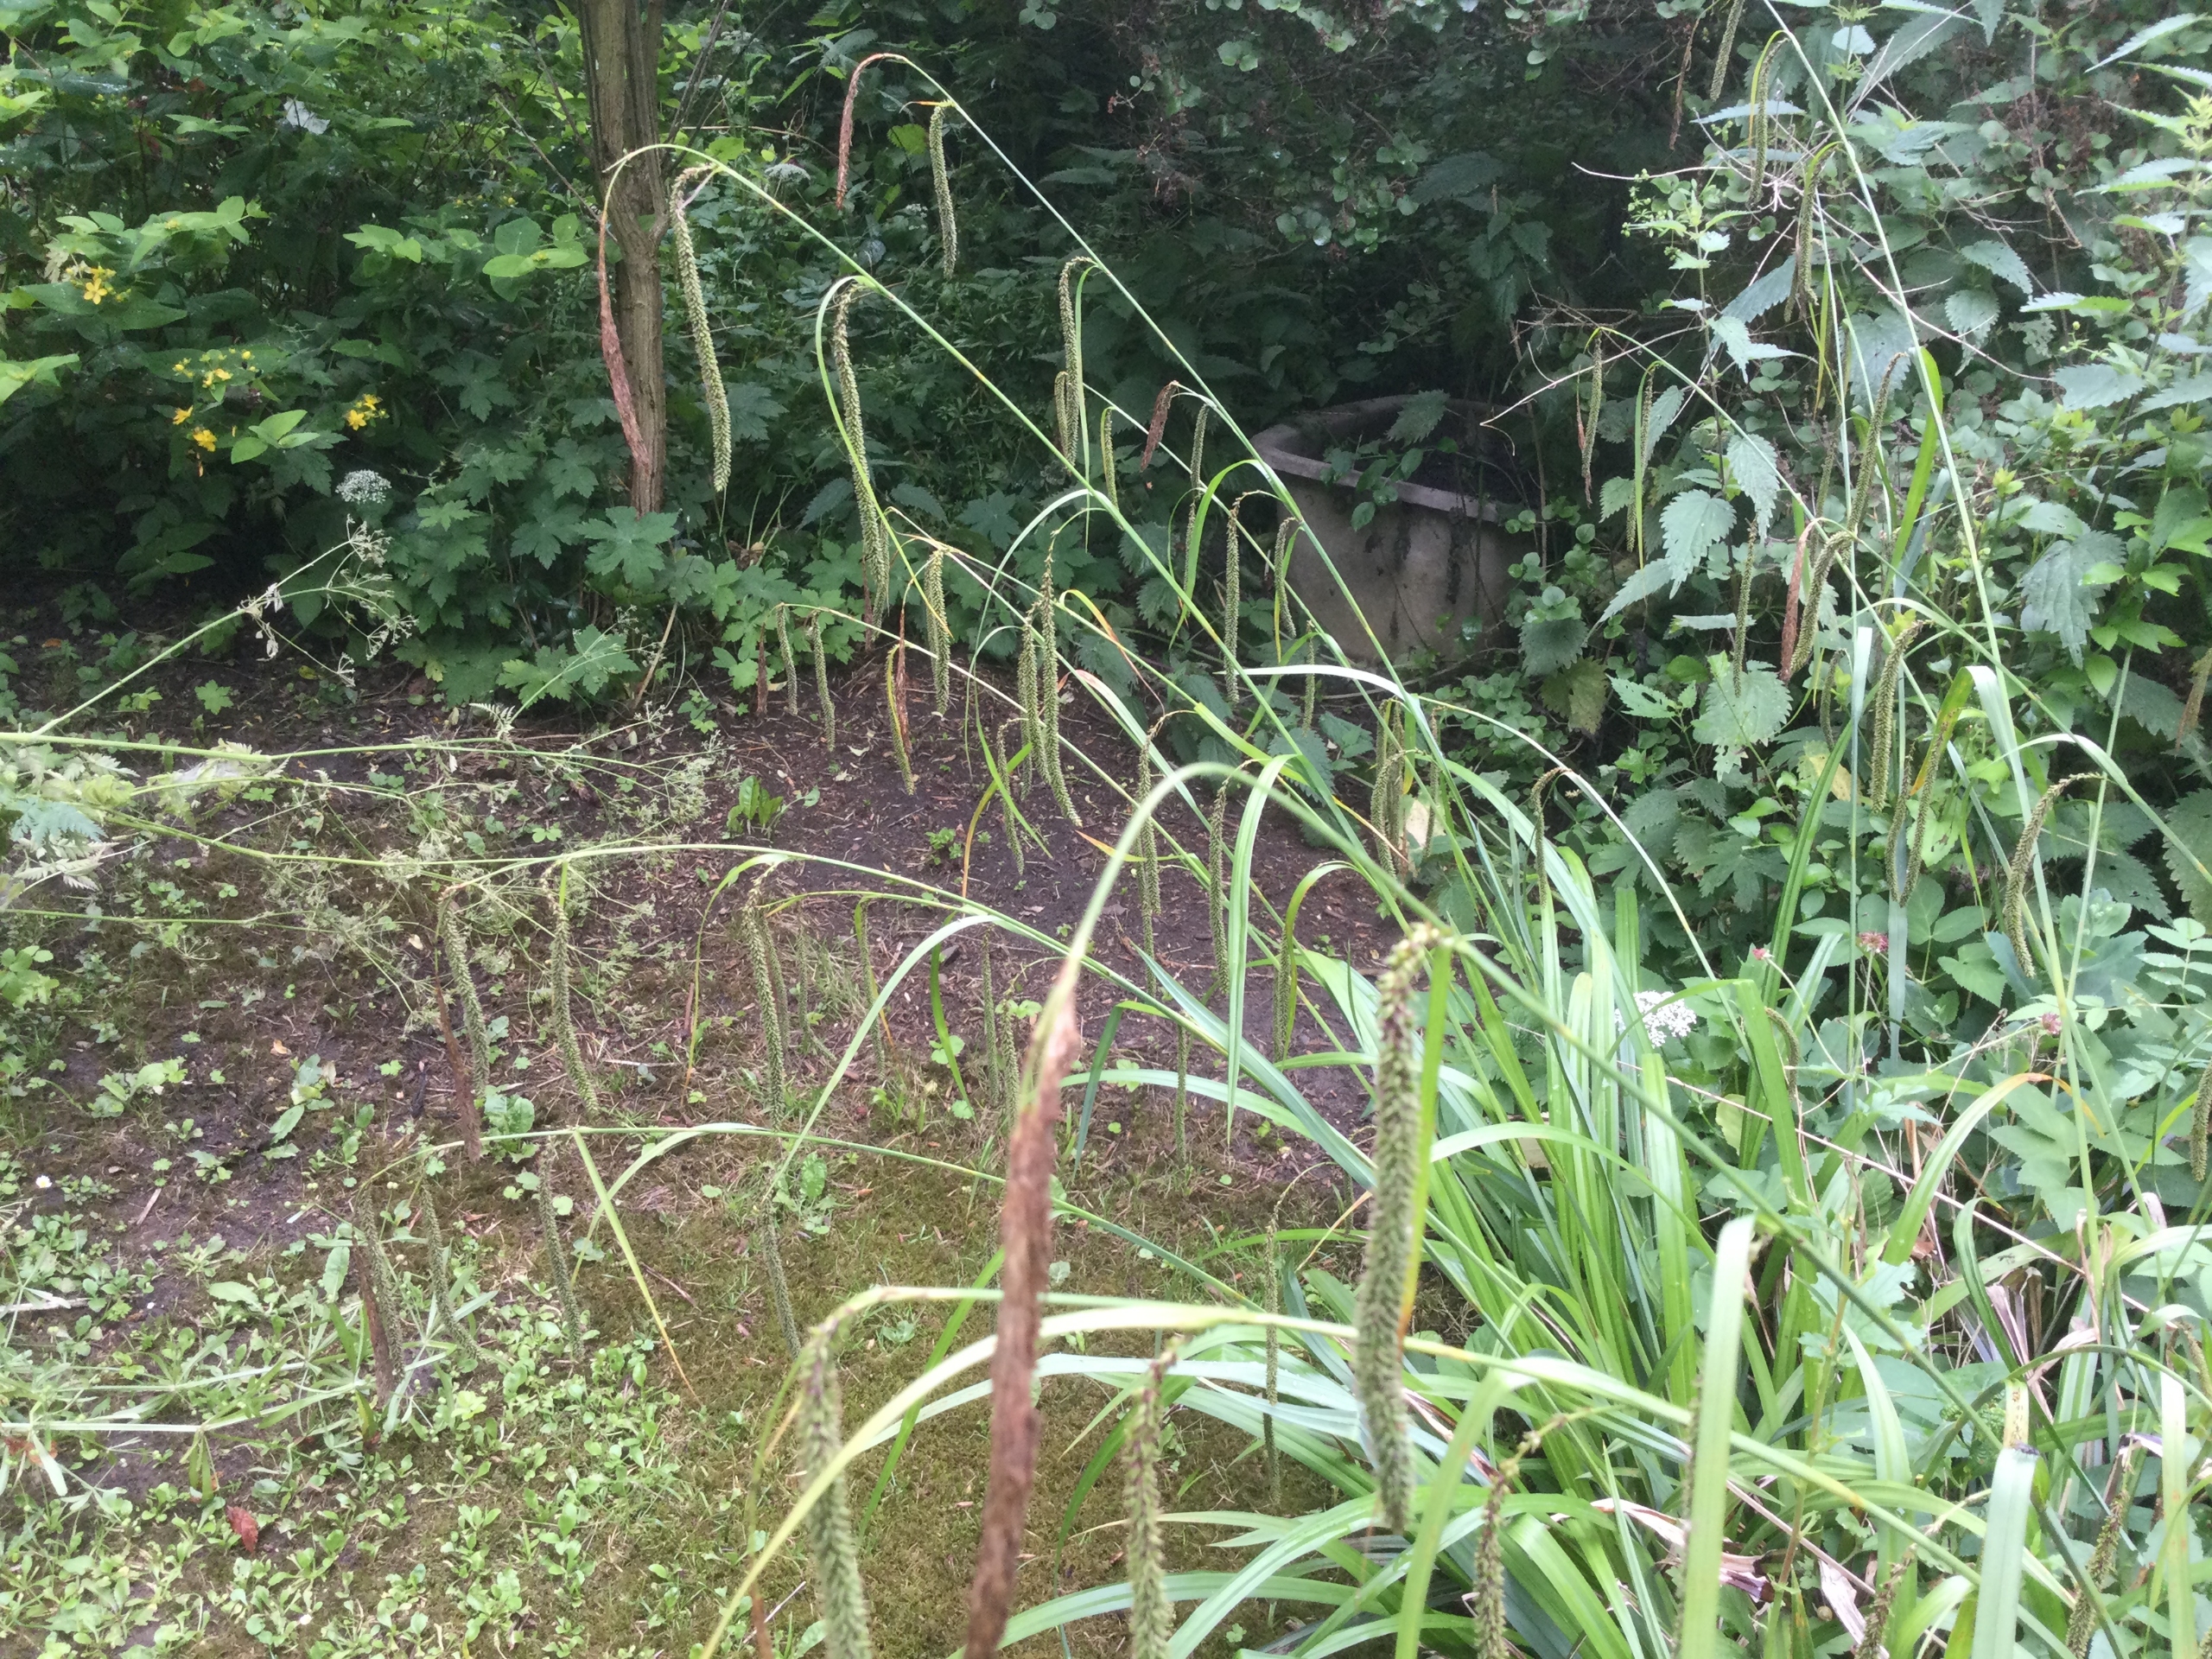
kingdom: Plantae
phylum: Tracheophyta
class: Liliopsida
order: Poales
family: Cyperaceae
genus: Carex
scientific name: Carex pendula
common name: Kæmpe-star
